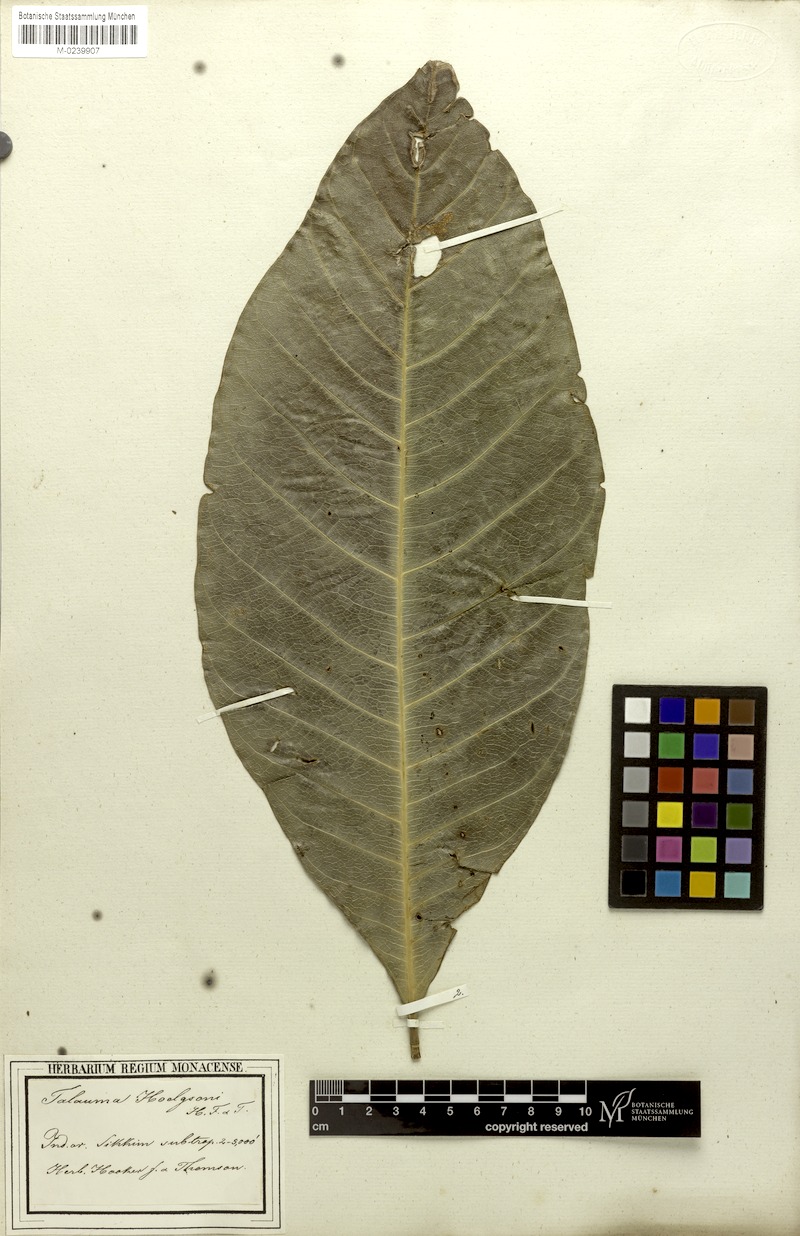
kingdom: Plantae
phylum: Tracheophyta
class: Magnoliopsida
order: Magnoliales
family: Magnoliaceae
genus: Magnolia
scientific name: Magnolia hodgsonii
